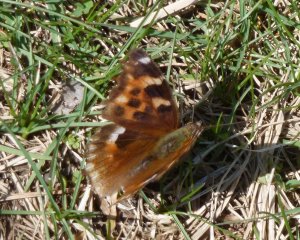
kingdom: Animalia
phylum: Arthropoda
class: Insecta
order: Lepidoptera
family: Nymphalidae
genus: Polygonia
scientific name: Polygonia vaualbum
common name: Compton Tortoiseshell
